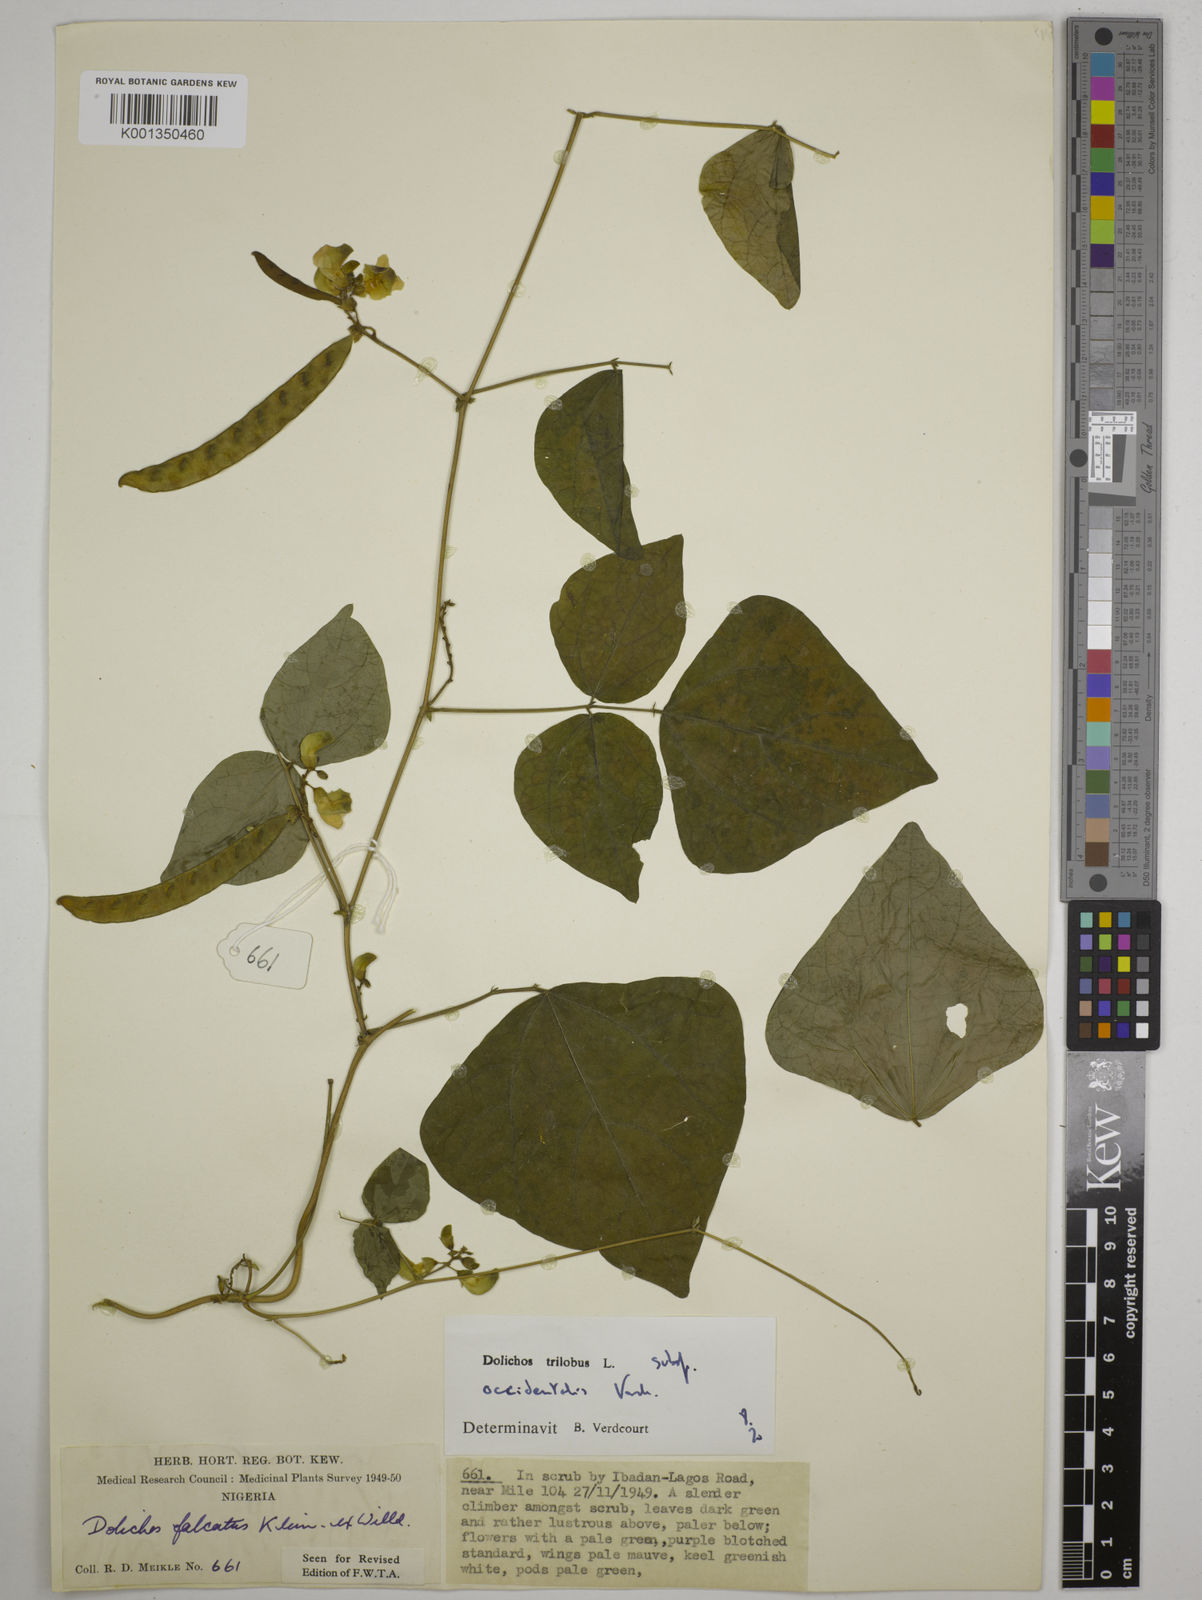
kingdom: Plantae
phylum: Tracheophyta
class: Magnoliopsida
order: Fabales
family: Fabaceae
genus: Dolichos
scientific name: Dolichos
